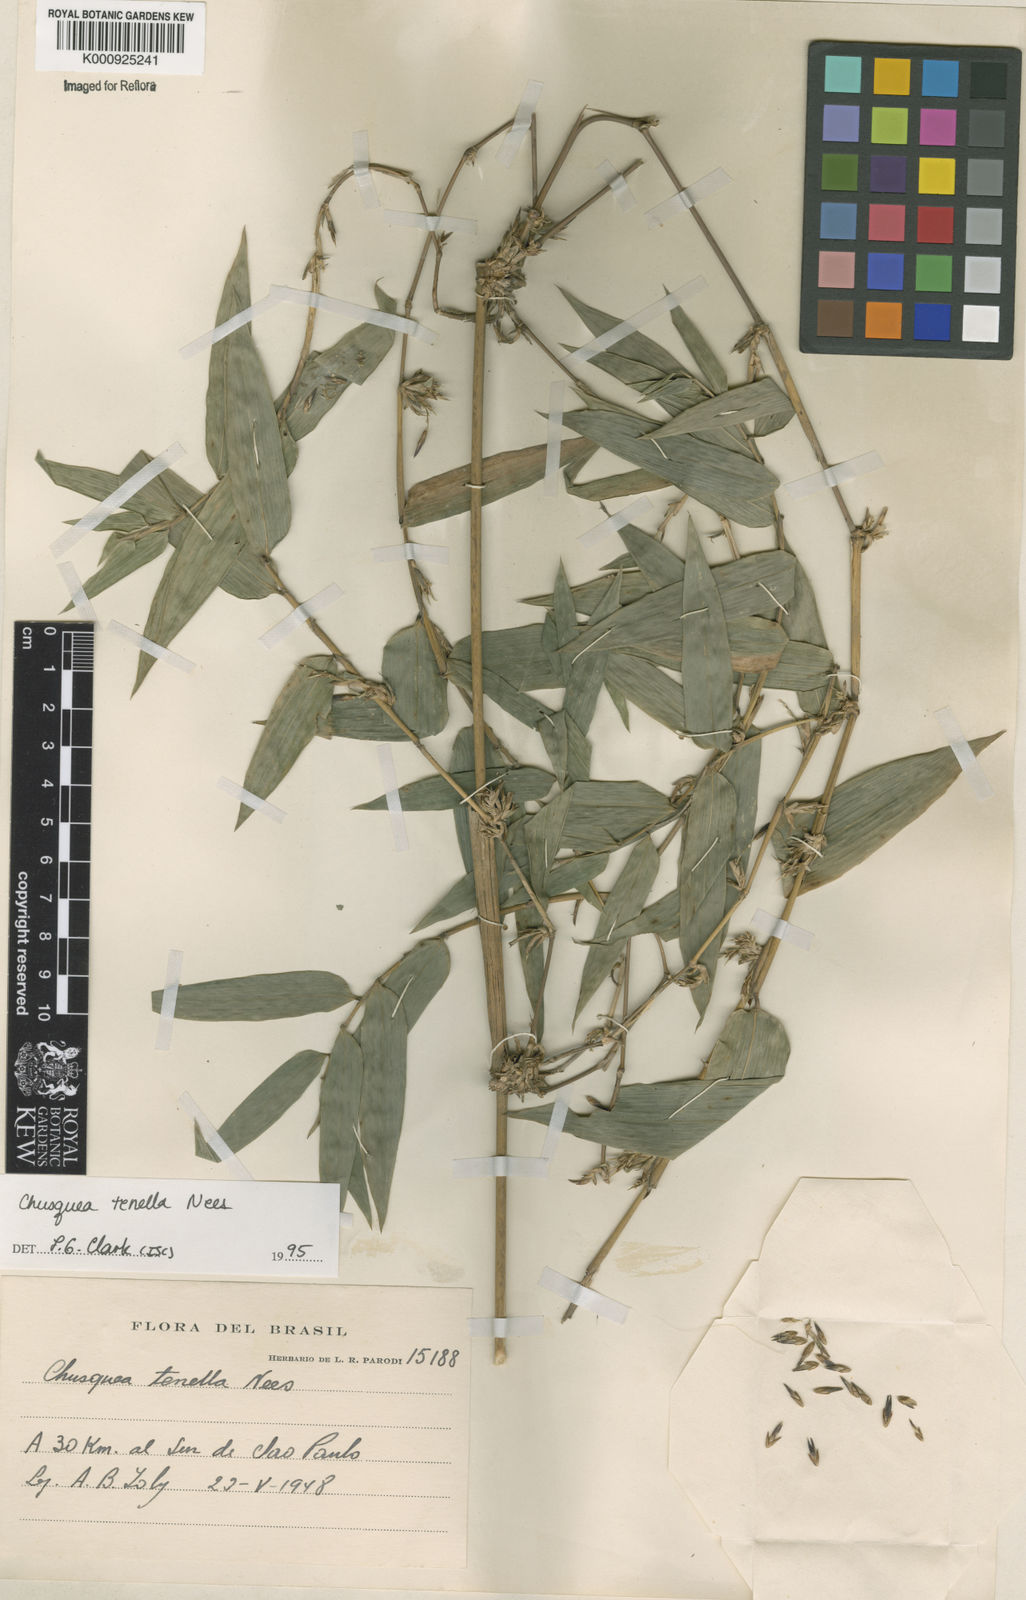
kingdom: Plantae
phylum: Tracheophyta
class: Liliopsida
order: Poales
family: Poaceae
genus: Chusquea
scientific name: Chusquea tenella
